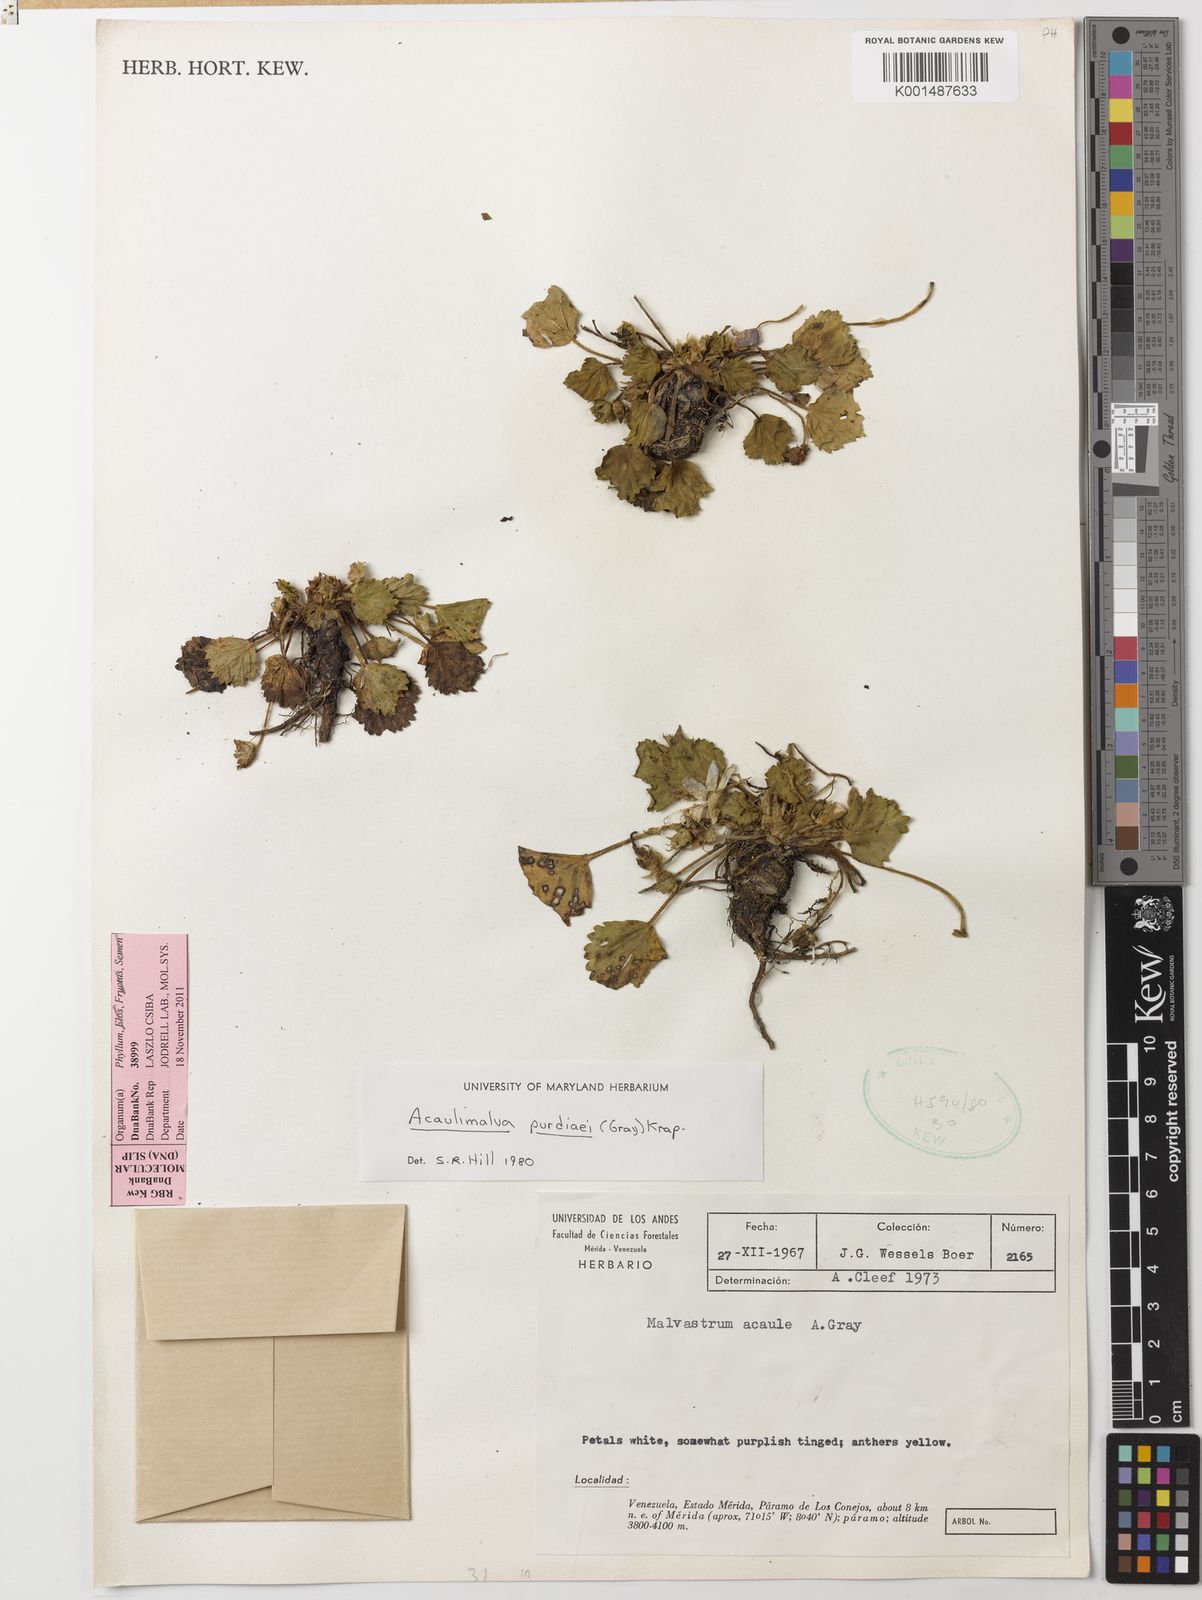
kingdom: Plantae
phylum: Tracheophyta
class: Magnoliopsida
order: Malvales
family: Malvaceae
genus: Acaulimalva
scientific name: Acaulimalva purdiaei
